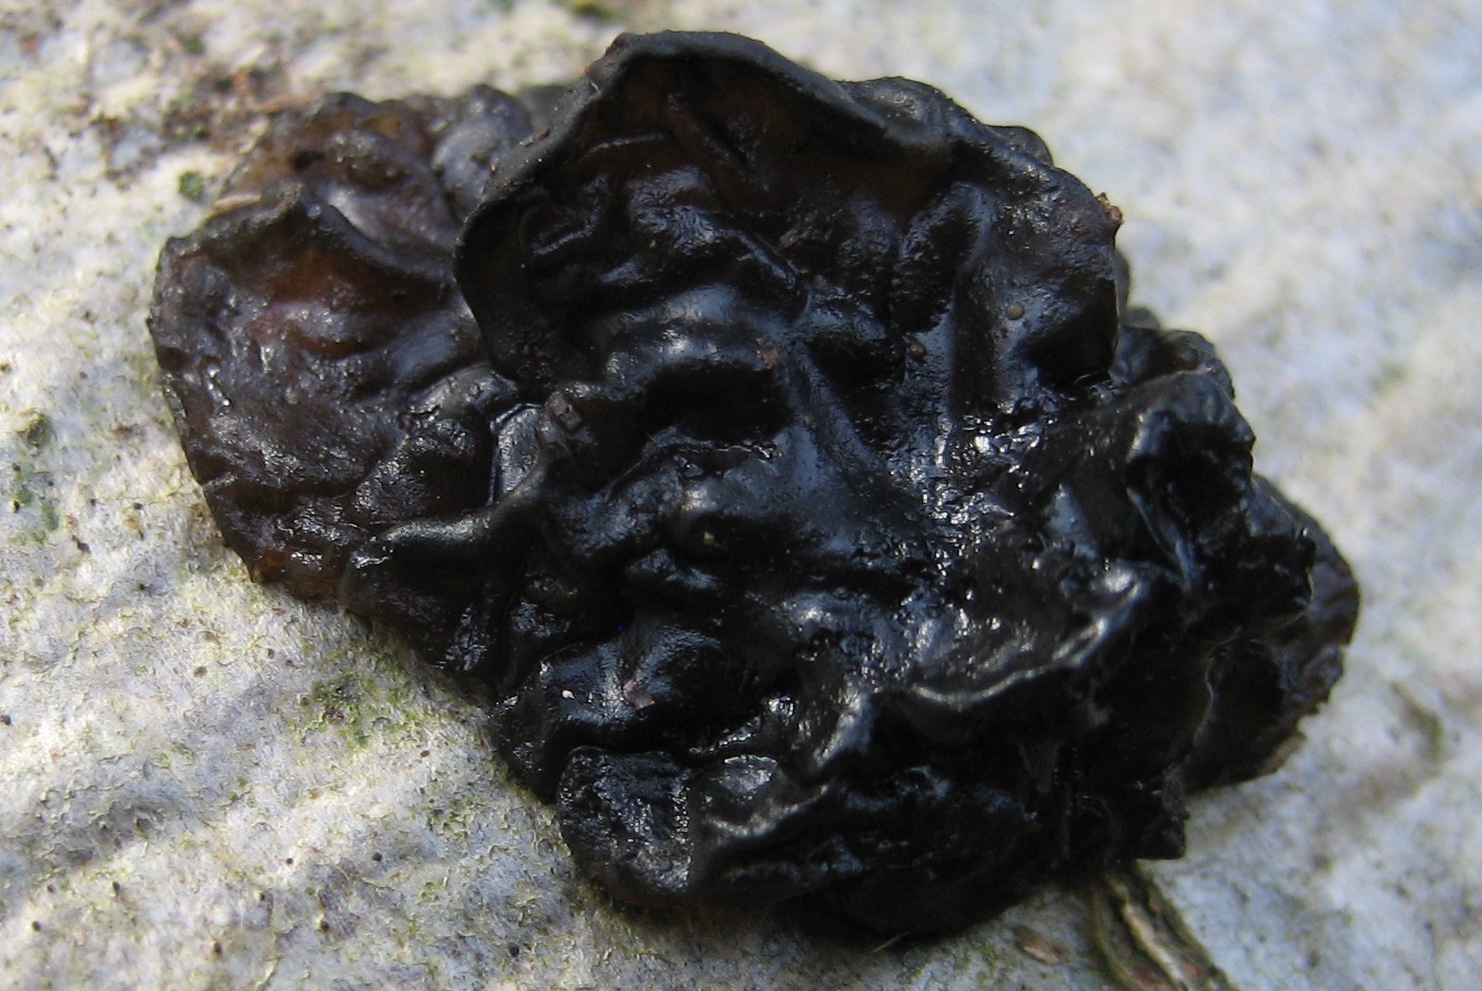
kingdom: Fungi
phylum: Basidiomycota
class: Agaricomycetes
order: Auriculariales
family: Auriculariaceae
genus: Exidia
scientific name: Exidia nigricans
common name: almindelig bævretop
